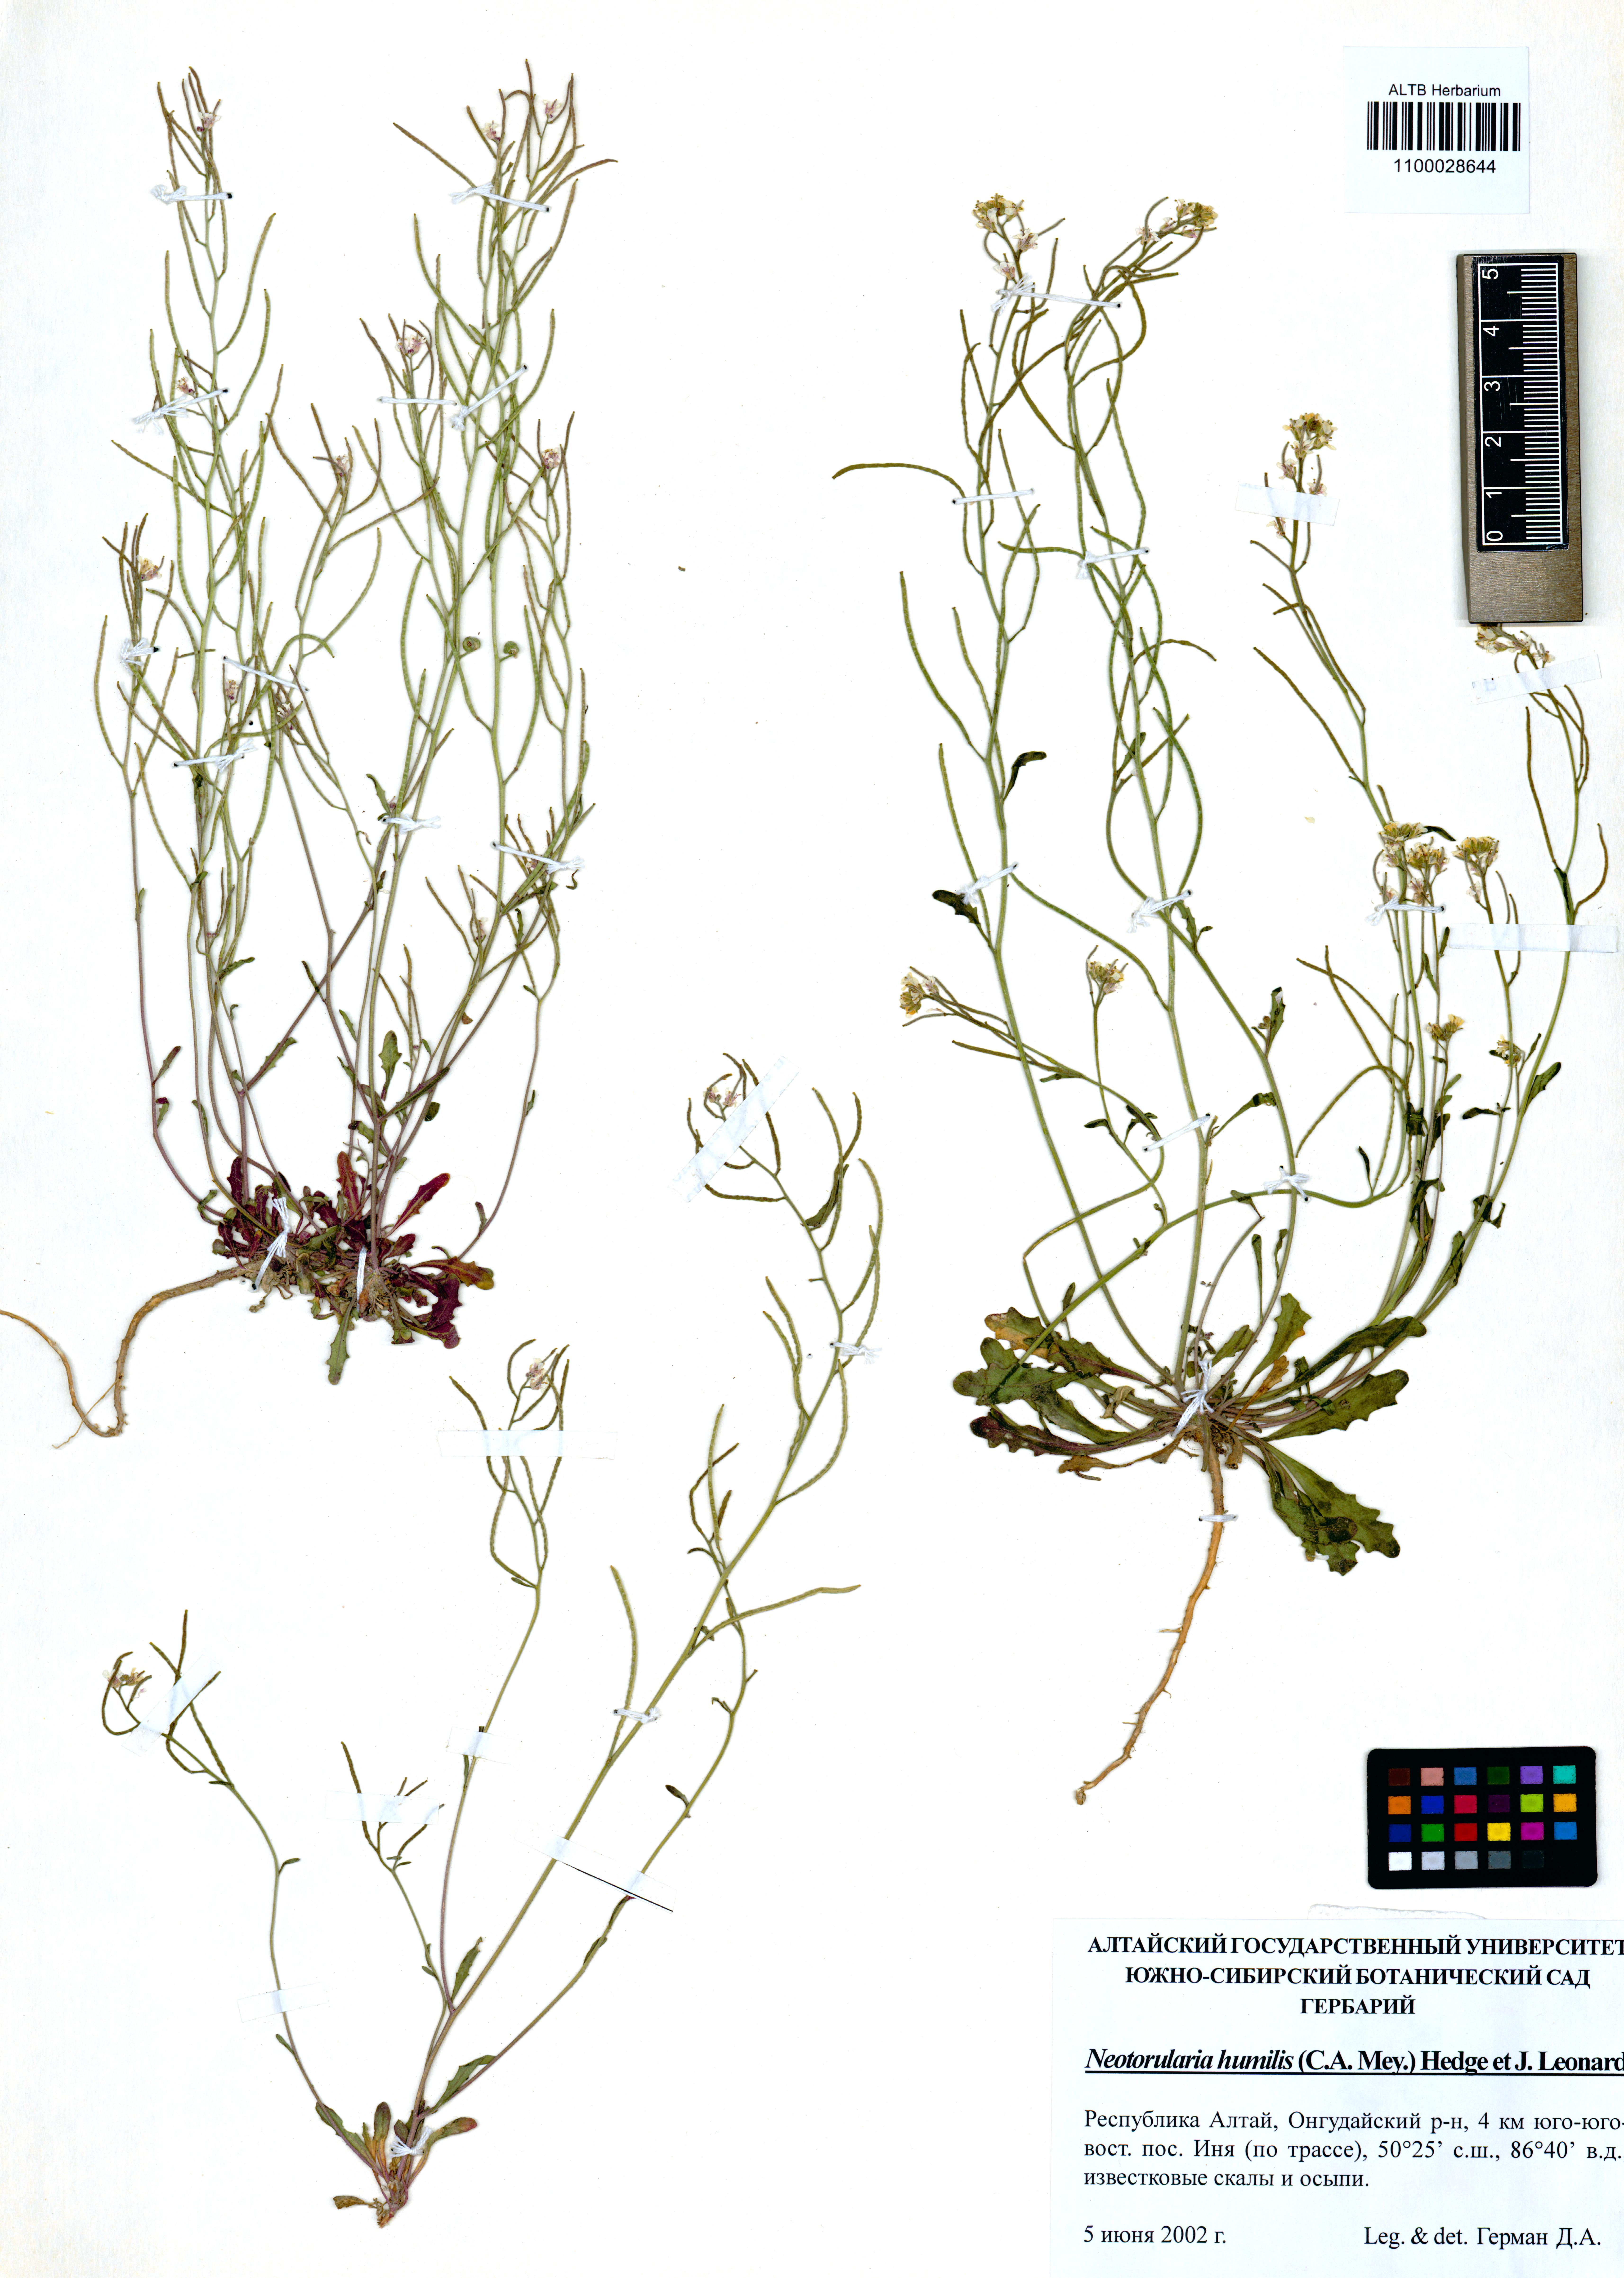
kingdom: Plantae
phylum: Tracheophyta
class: Magnoliopsida
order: Brassicales
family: Brassicaceae
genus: Braya
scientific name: Braya humilis
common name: Alpine northern rockcress
